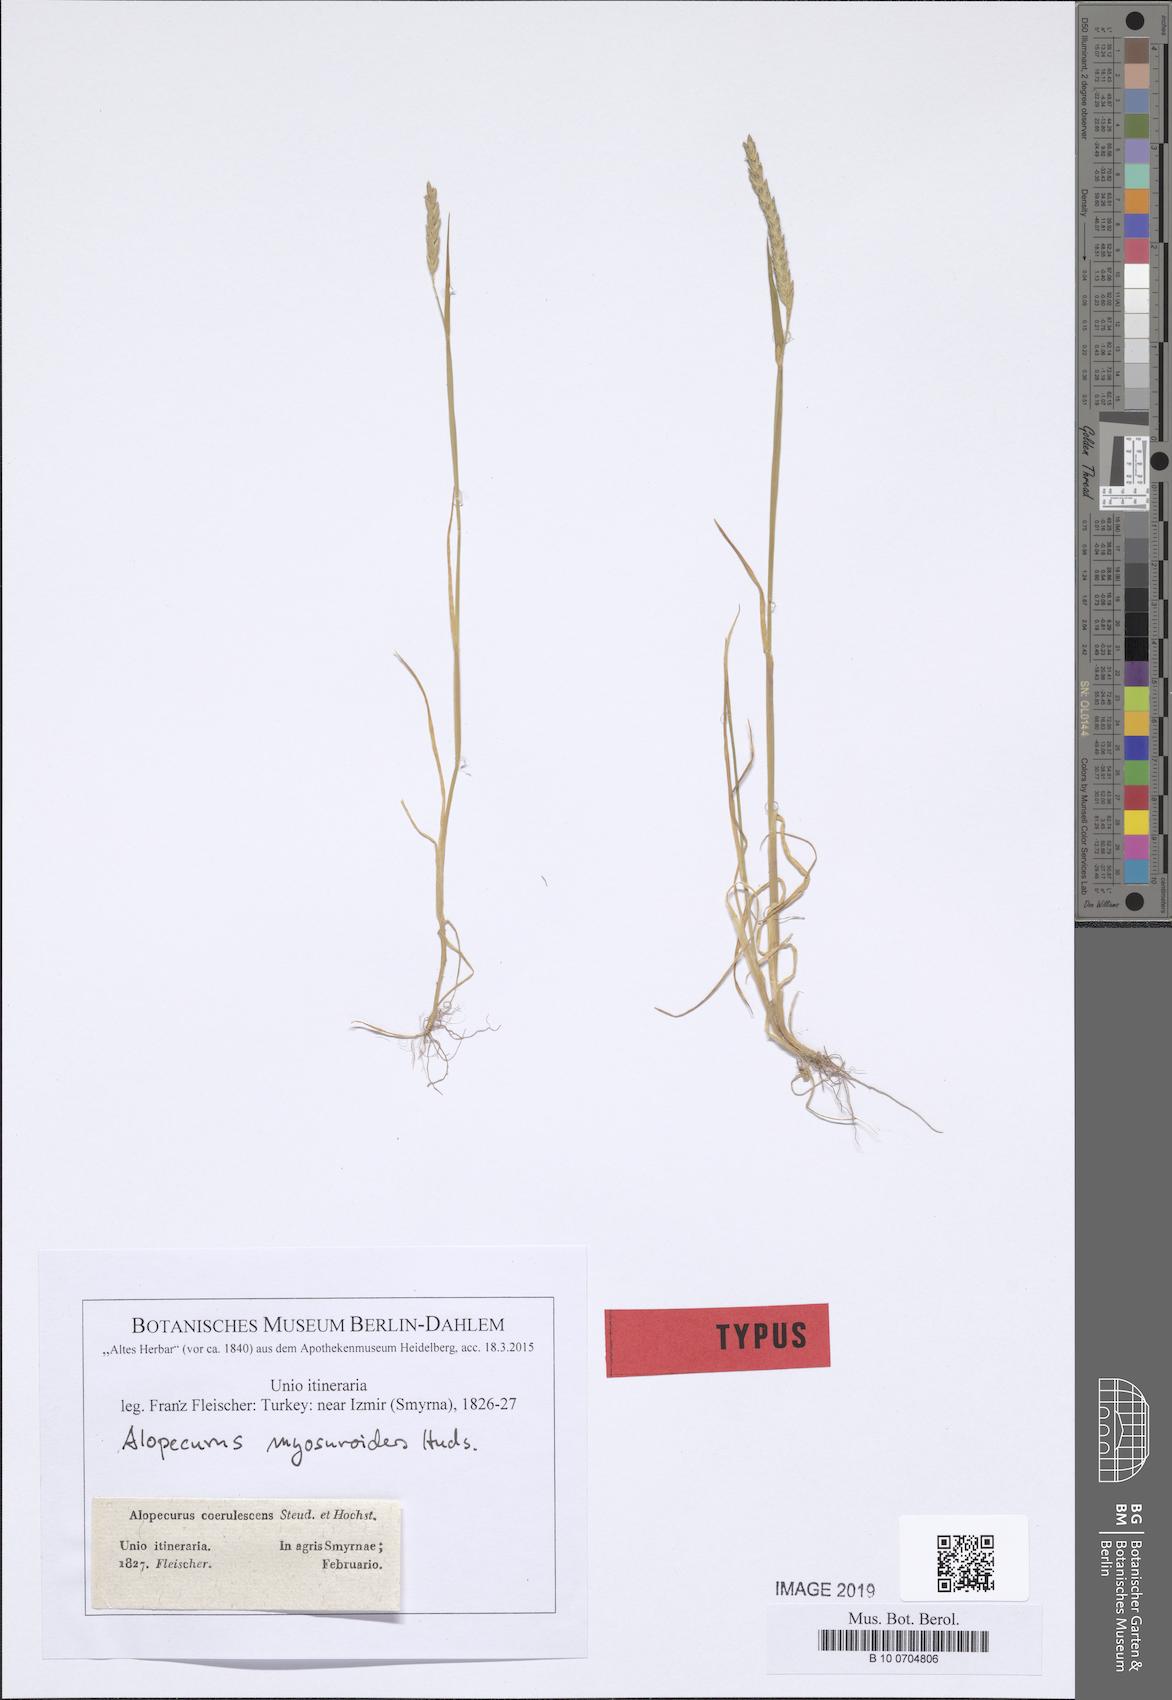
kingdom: Plantae
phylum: Tracheophyta
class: Liliopsida
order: Poales
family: Poaceae
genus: Alopecurus
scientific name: Alopecurus myosuroides
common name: Black-grass
